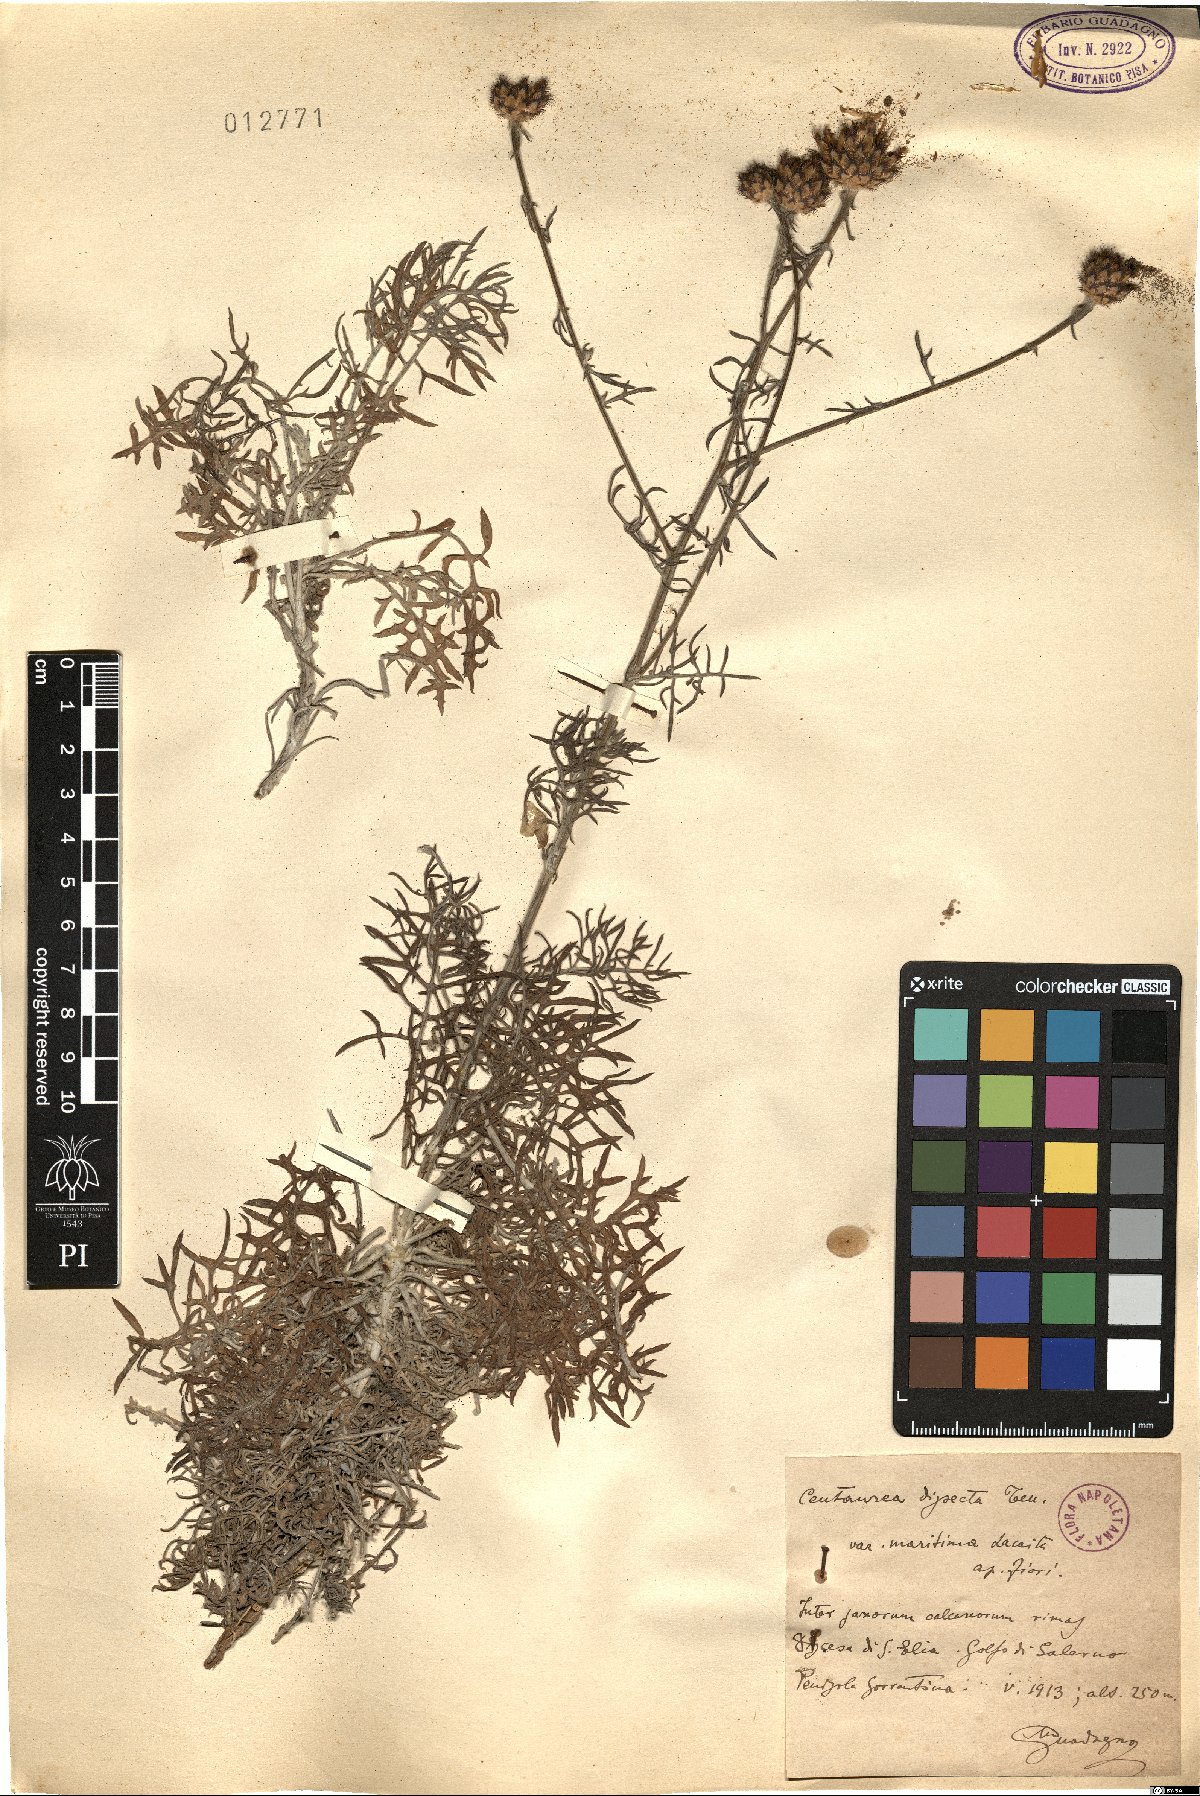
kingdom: Plantae
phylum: Tracheophyta
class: Magnoliopsida
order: Asterales
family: Asteraceae
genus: Centaurea
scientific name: Centaurea tenorei
